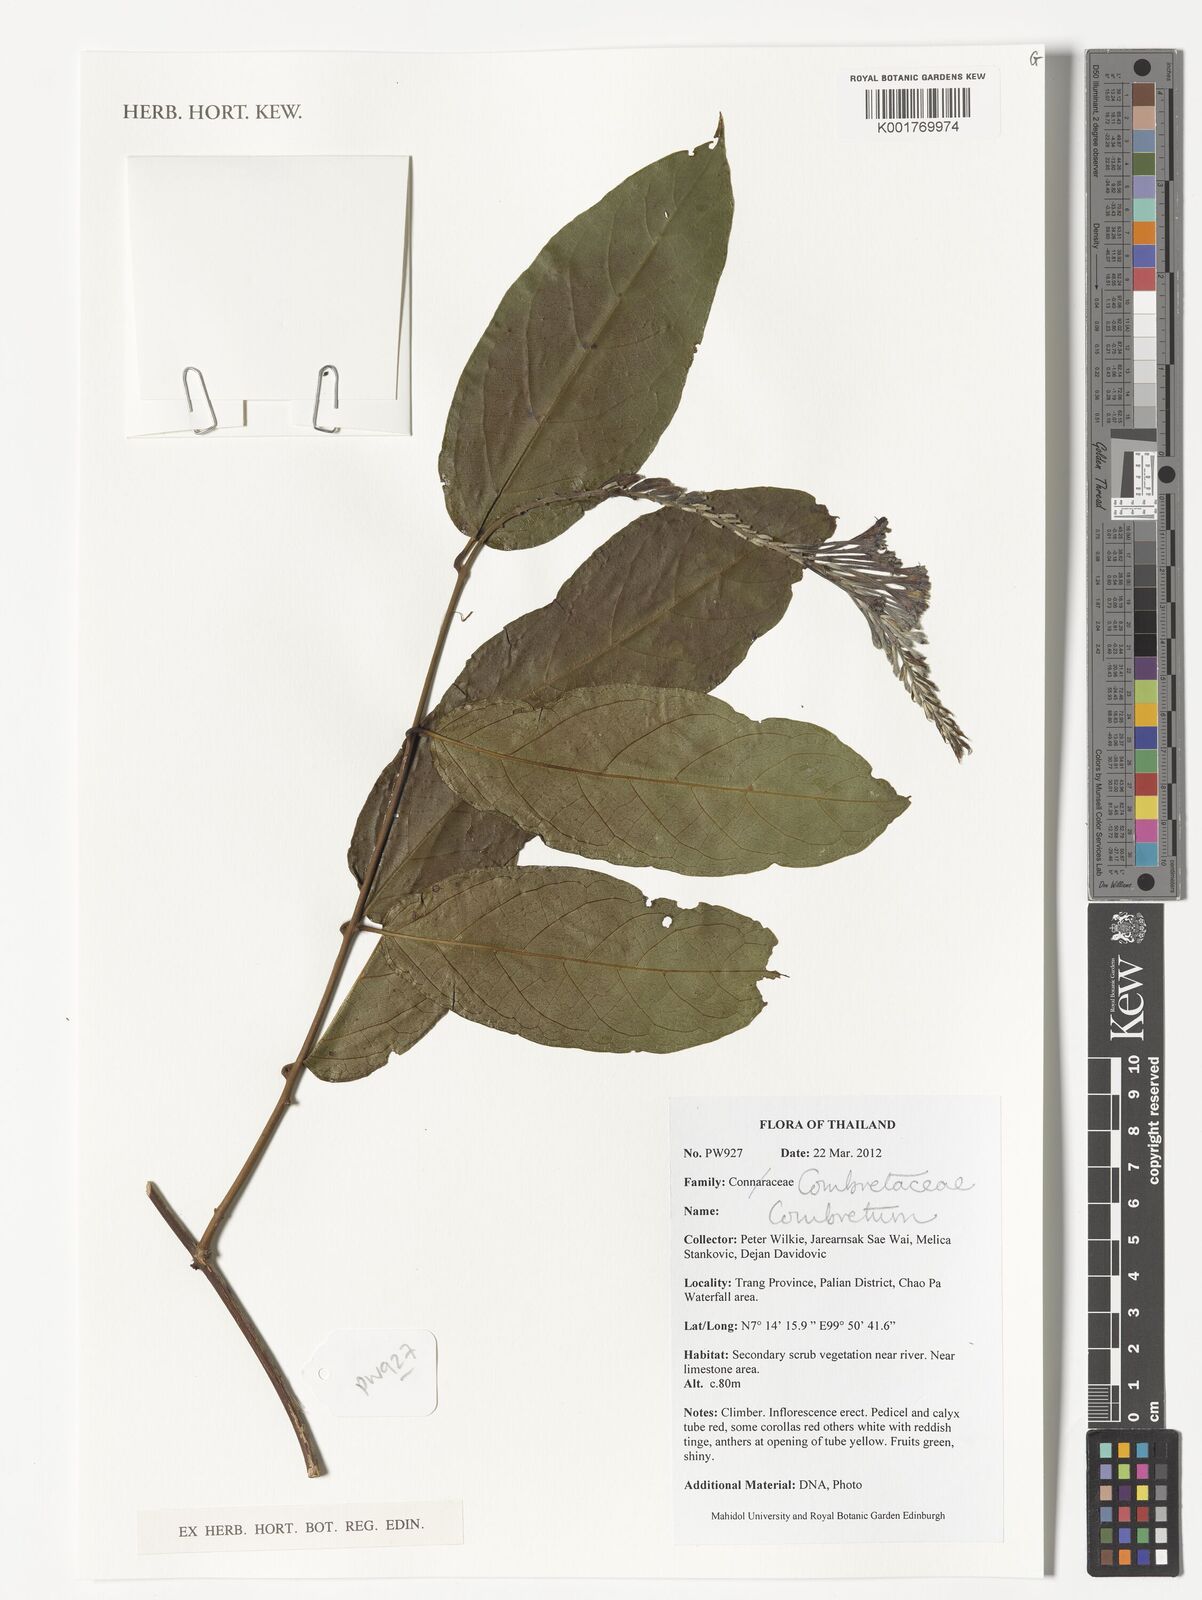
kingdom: Plantae
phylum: Tracheophyta
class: Magnoliopsida
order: Myrtales
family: Combretaceae
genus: Combretum
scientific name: Combretum
